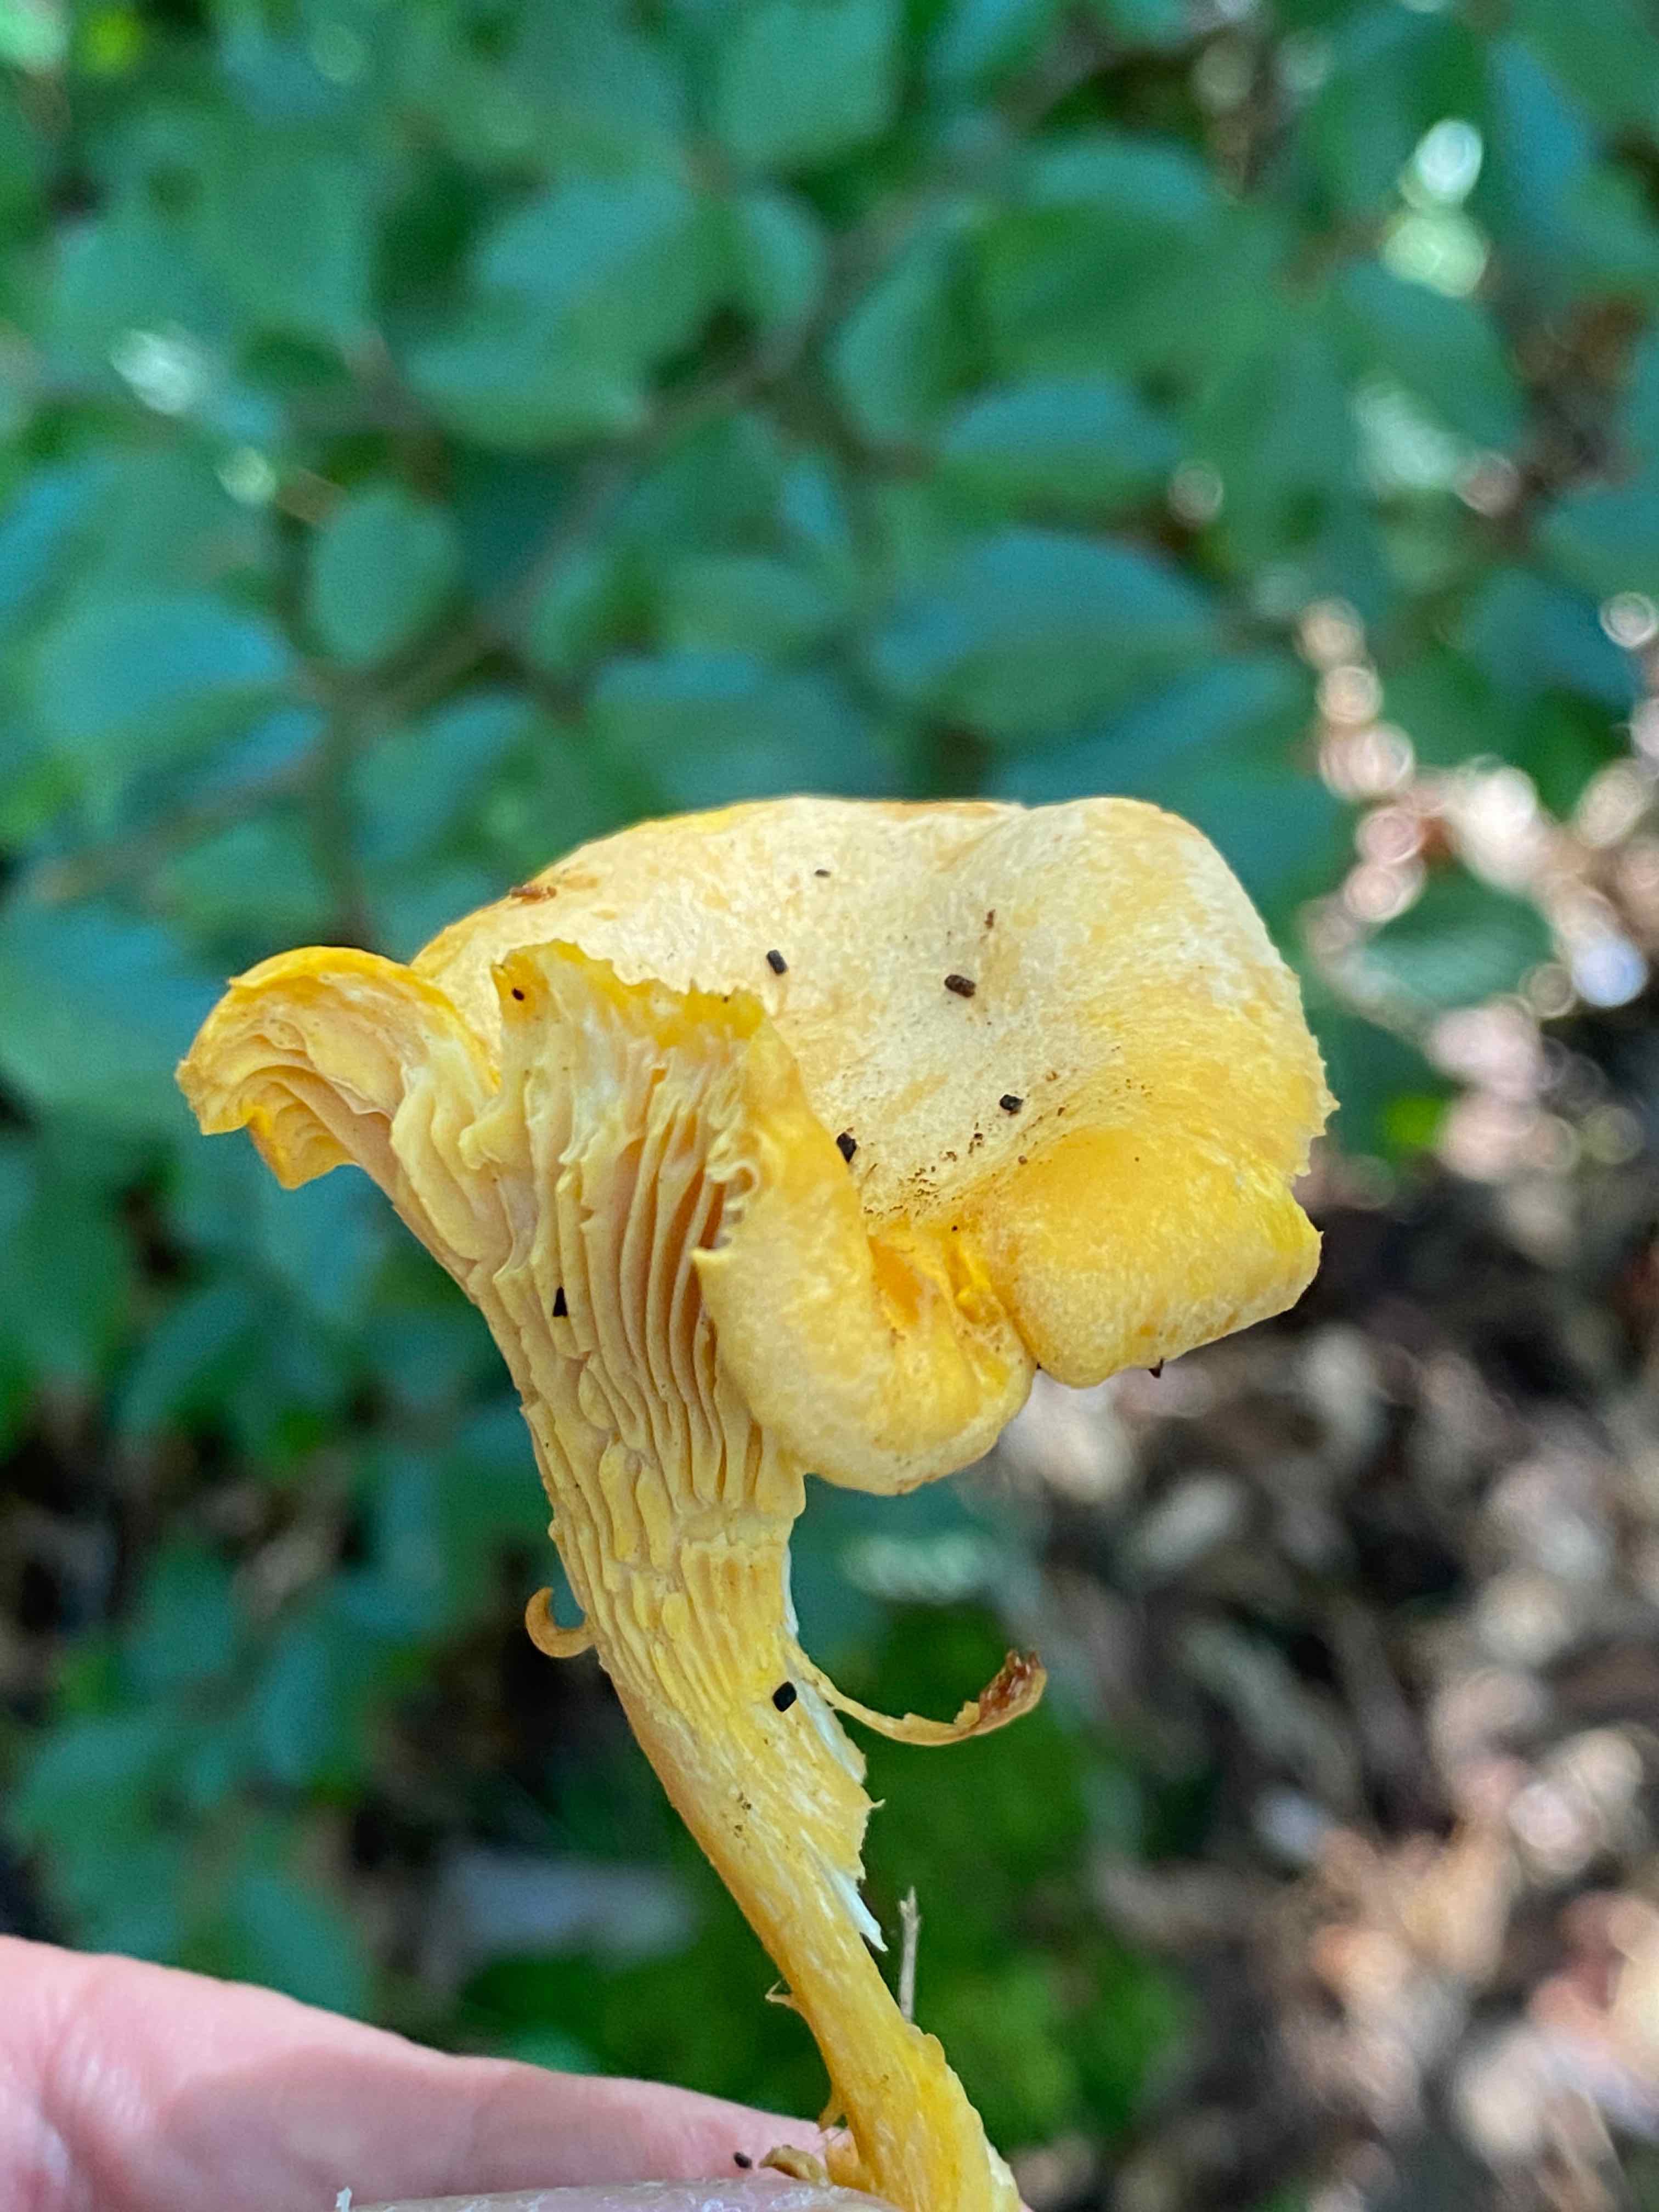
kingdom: Fungi
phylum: Basidiomycota
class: Agaricomycetes
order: Cantharellales
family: Hydnaceae
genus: Cantharellus
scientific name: Cantharellus cibarius
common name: almindelig kantarel
